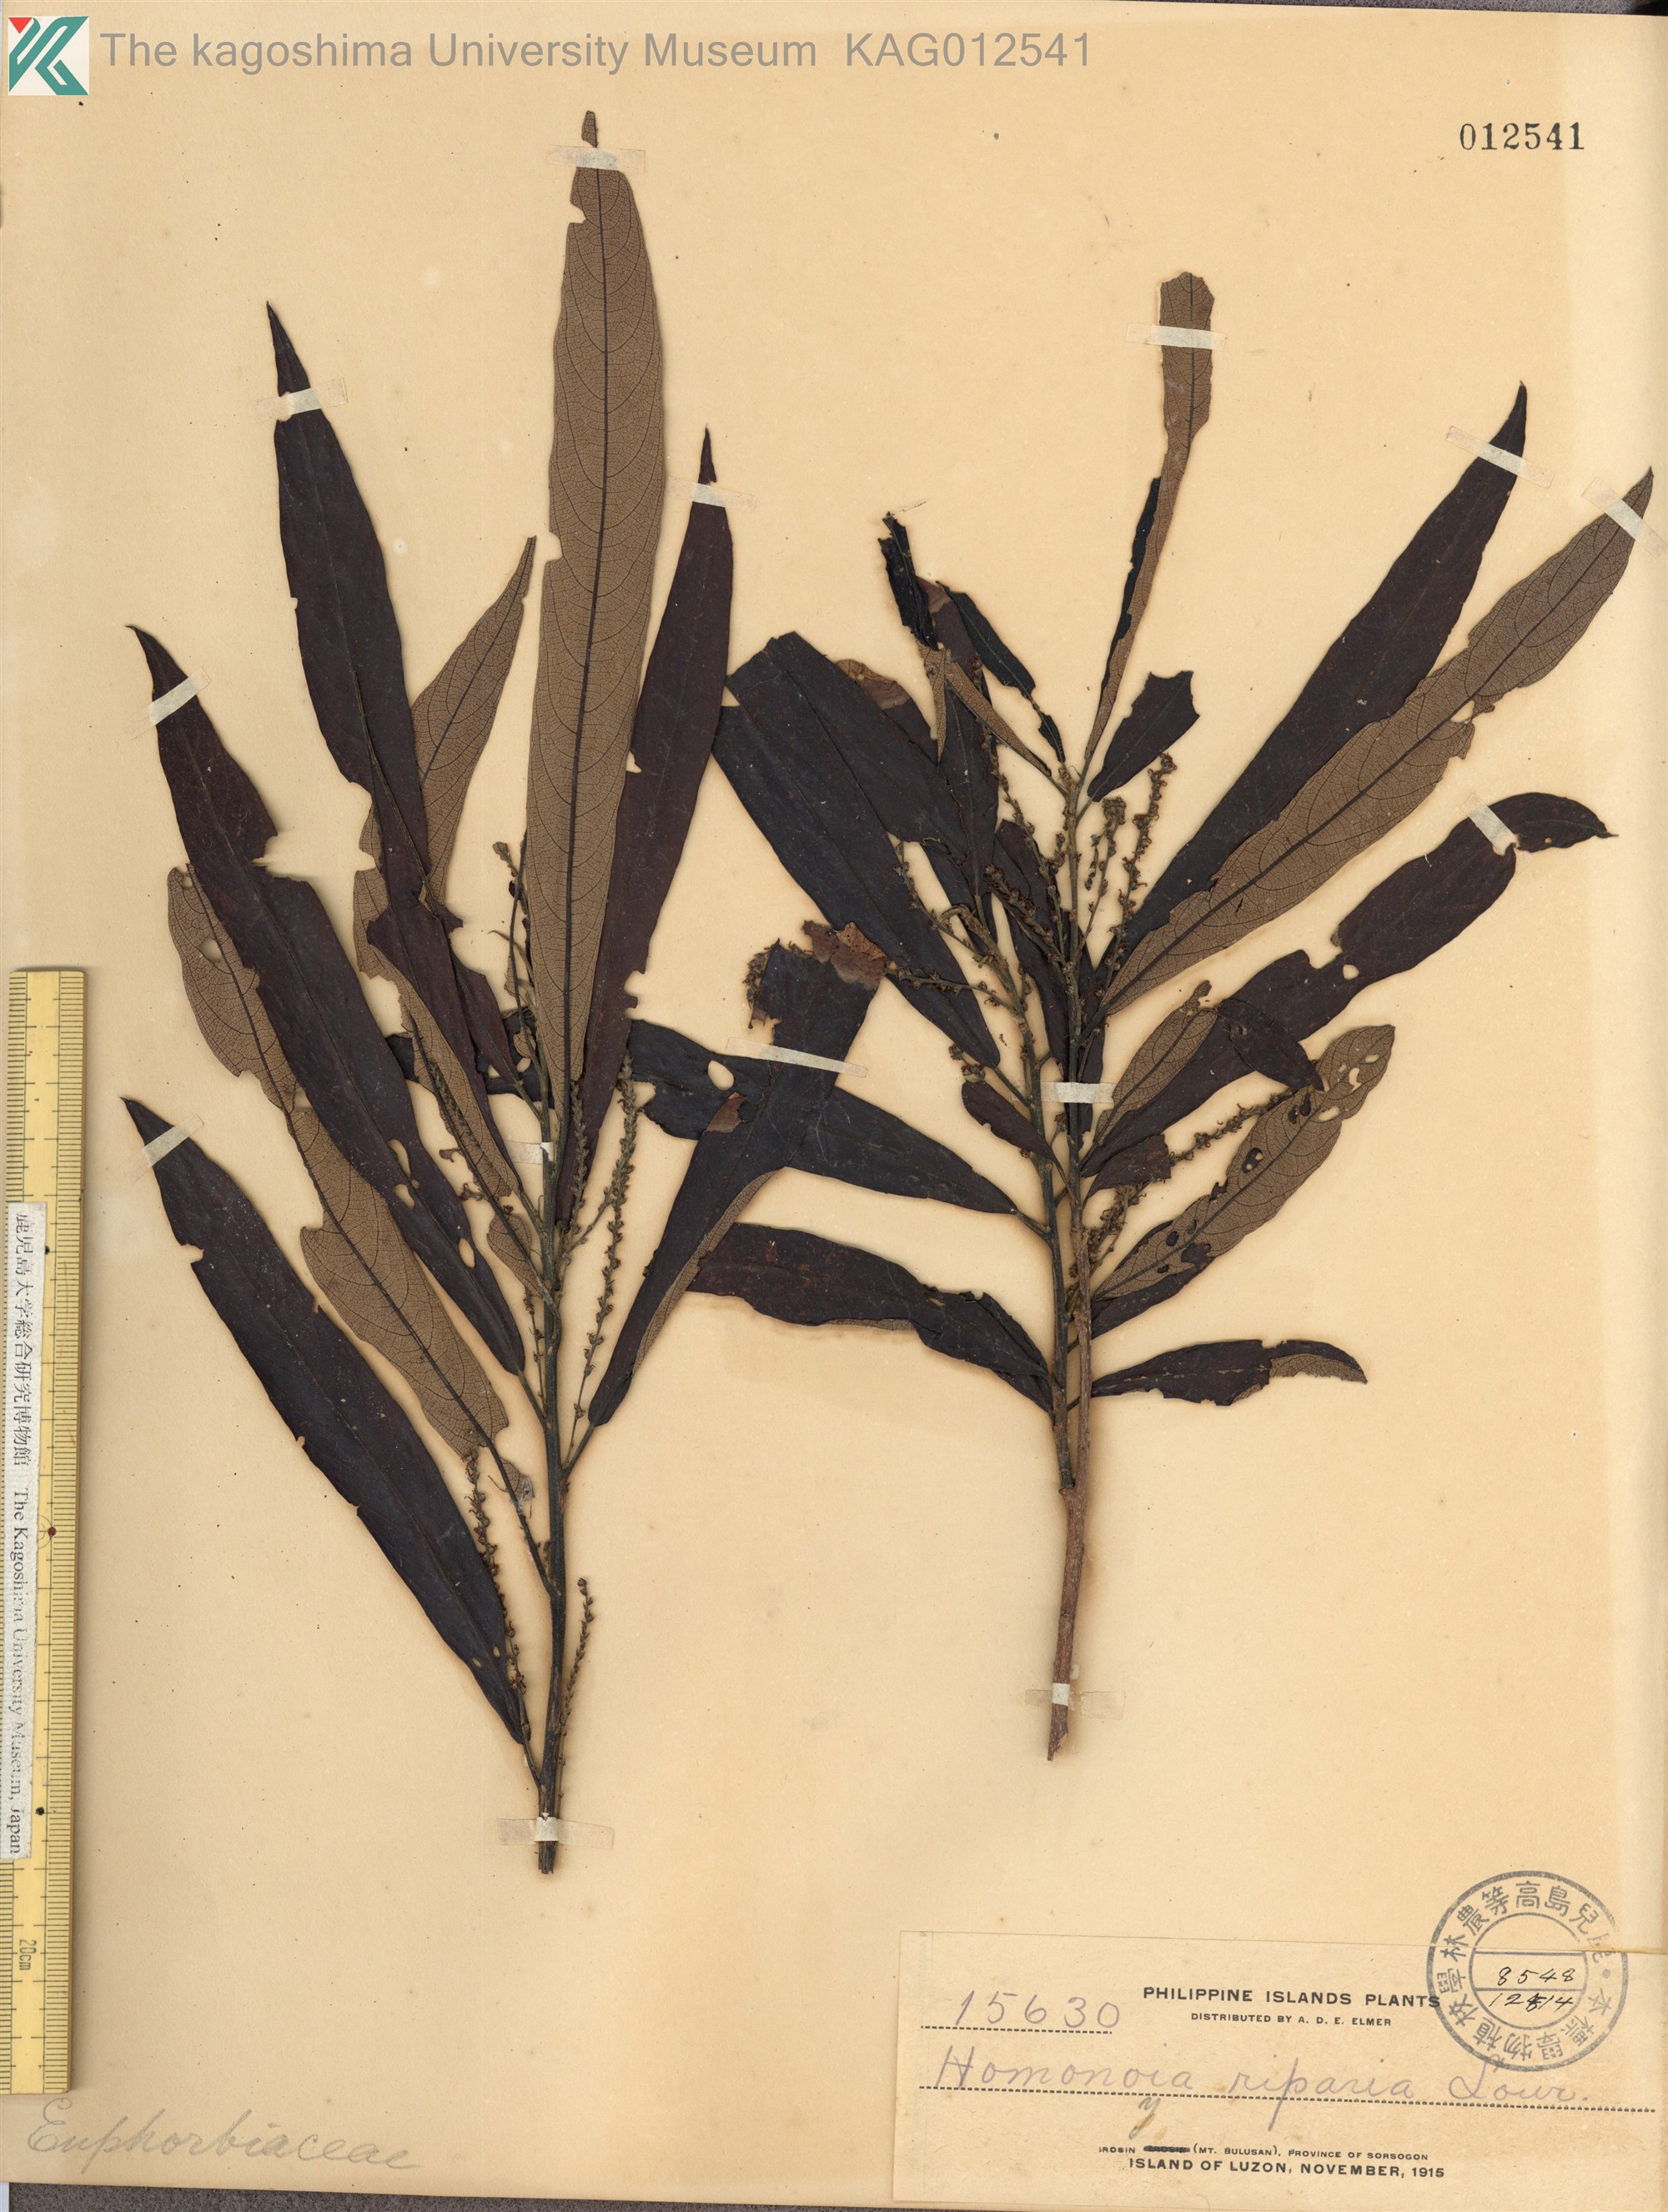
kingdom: Plantae
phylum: Tracheophyta
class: Magnoliopsida
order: Malpighiales
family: Euphorbiaceae
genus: Homonoia
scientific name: Homonoia riparia
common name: Willow-leaved water croton
